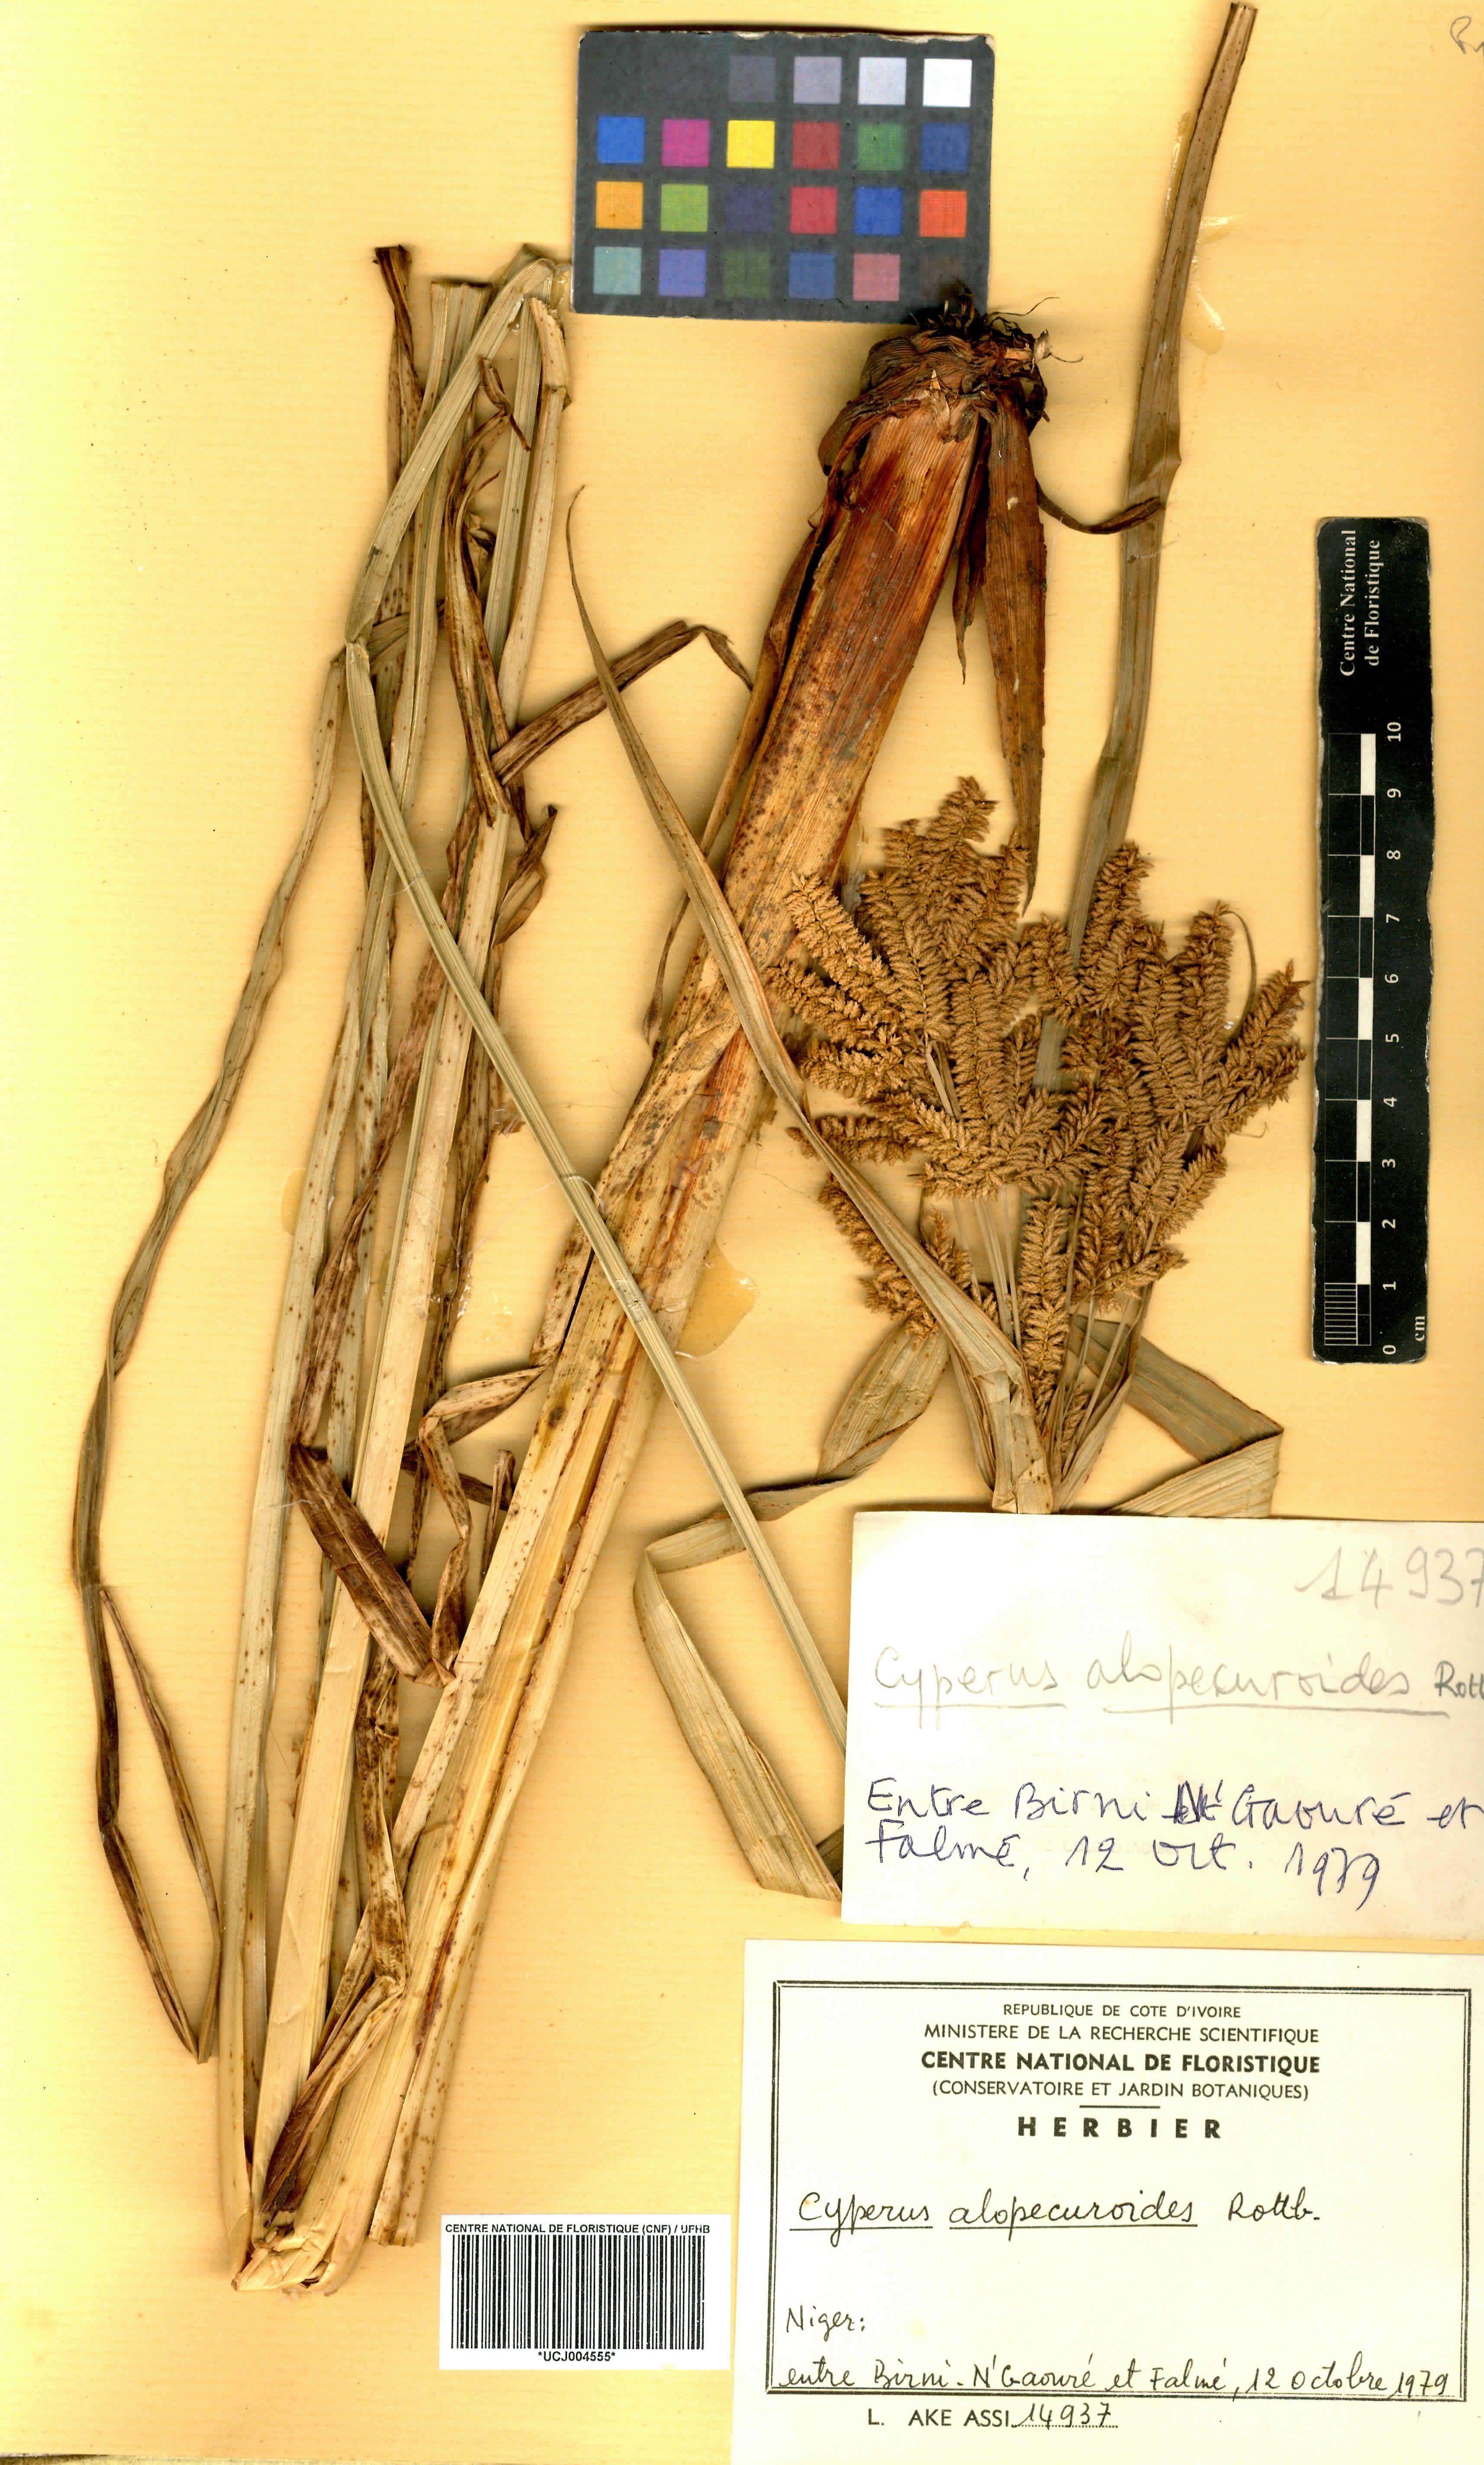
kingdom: Plantae
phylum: Tracheophyta
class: Liliopsida
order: Poales
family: Cyperaceae
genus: Cyperus
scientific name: Cyperus alopecuroides
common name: Foxtail flatsedge
